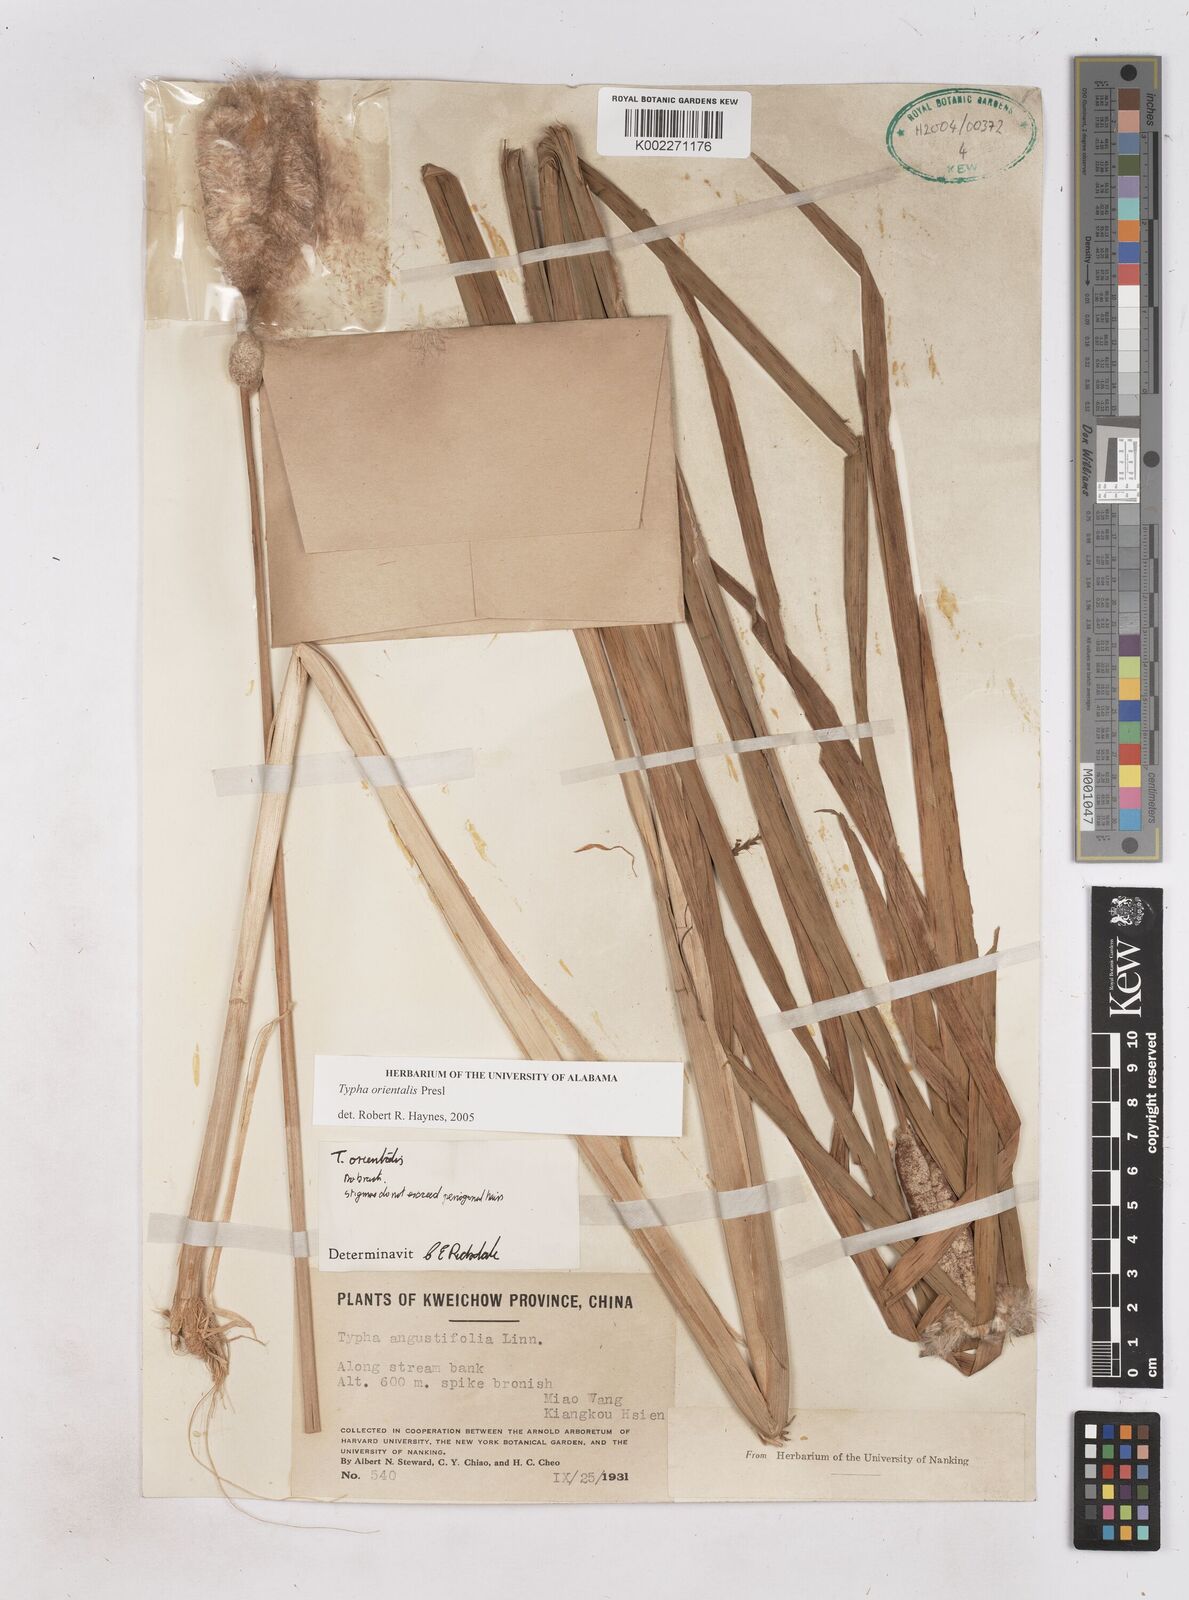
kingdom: Plantae
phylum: Tracheophyta
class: Liliopsida
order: Poales
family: Typhaceae
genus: Typha
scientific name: Typha shuttleworthii
